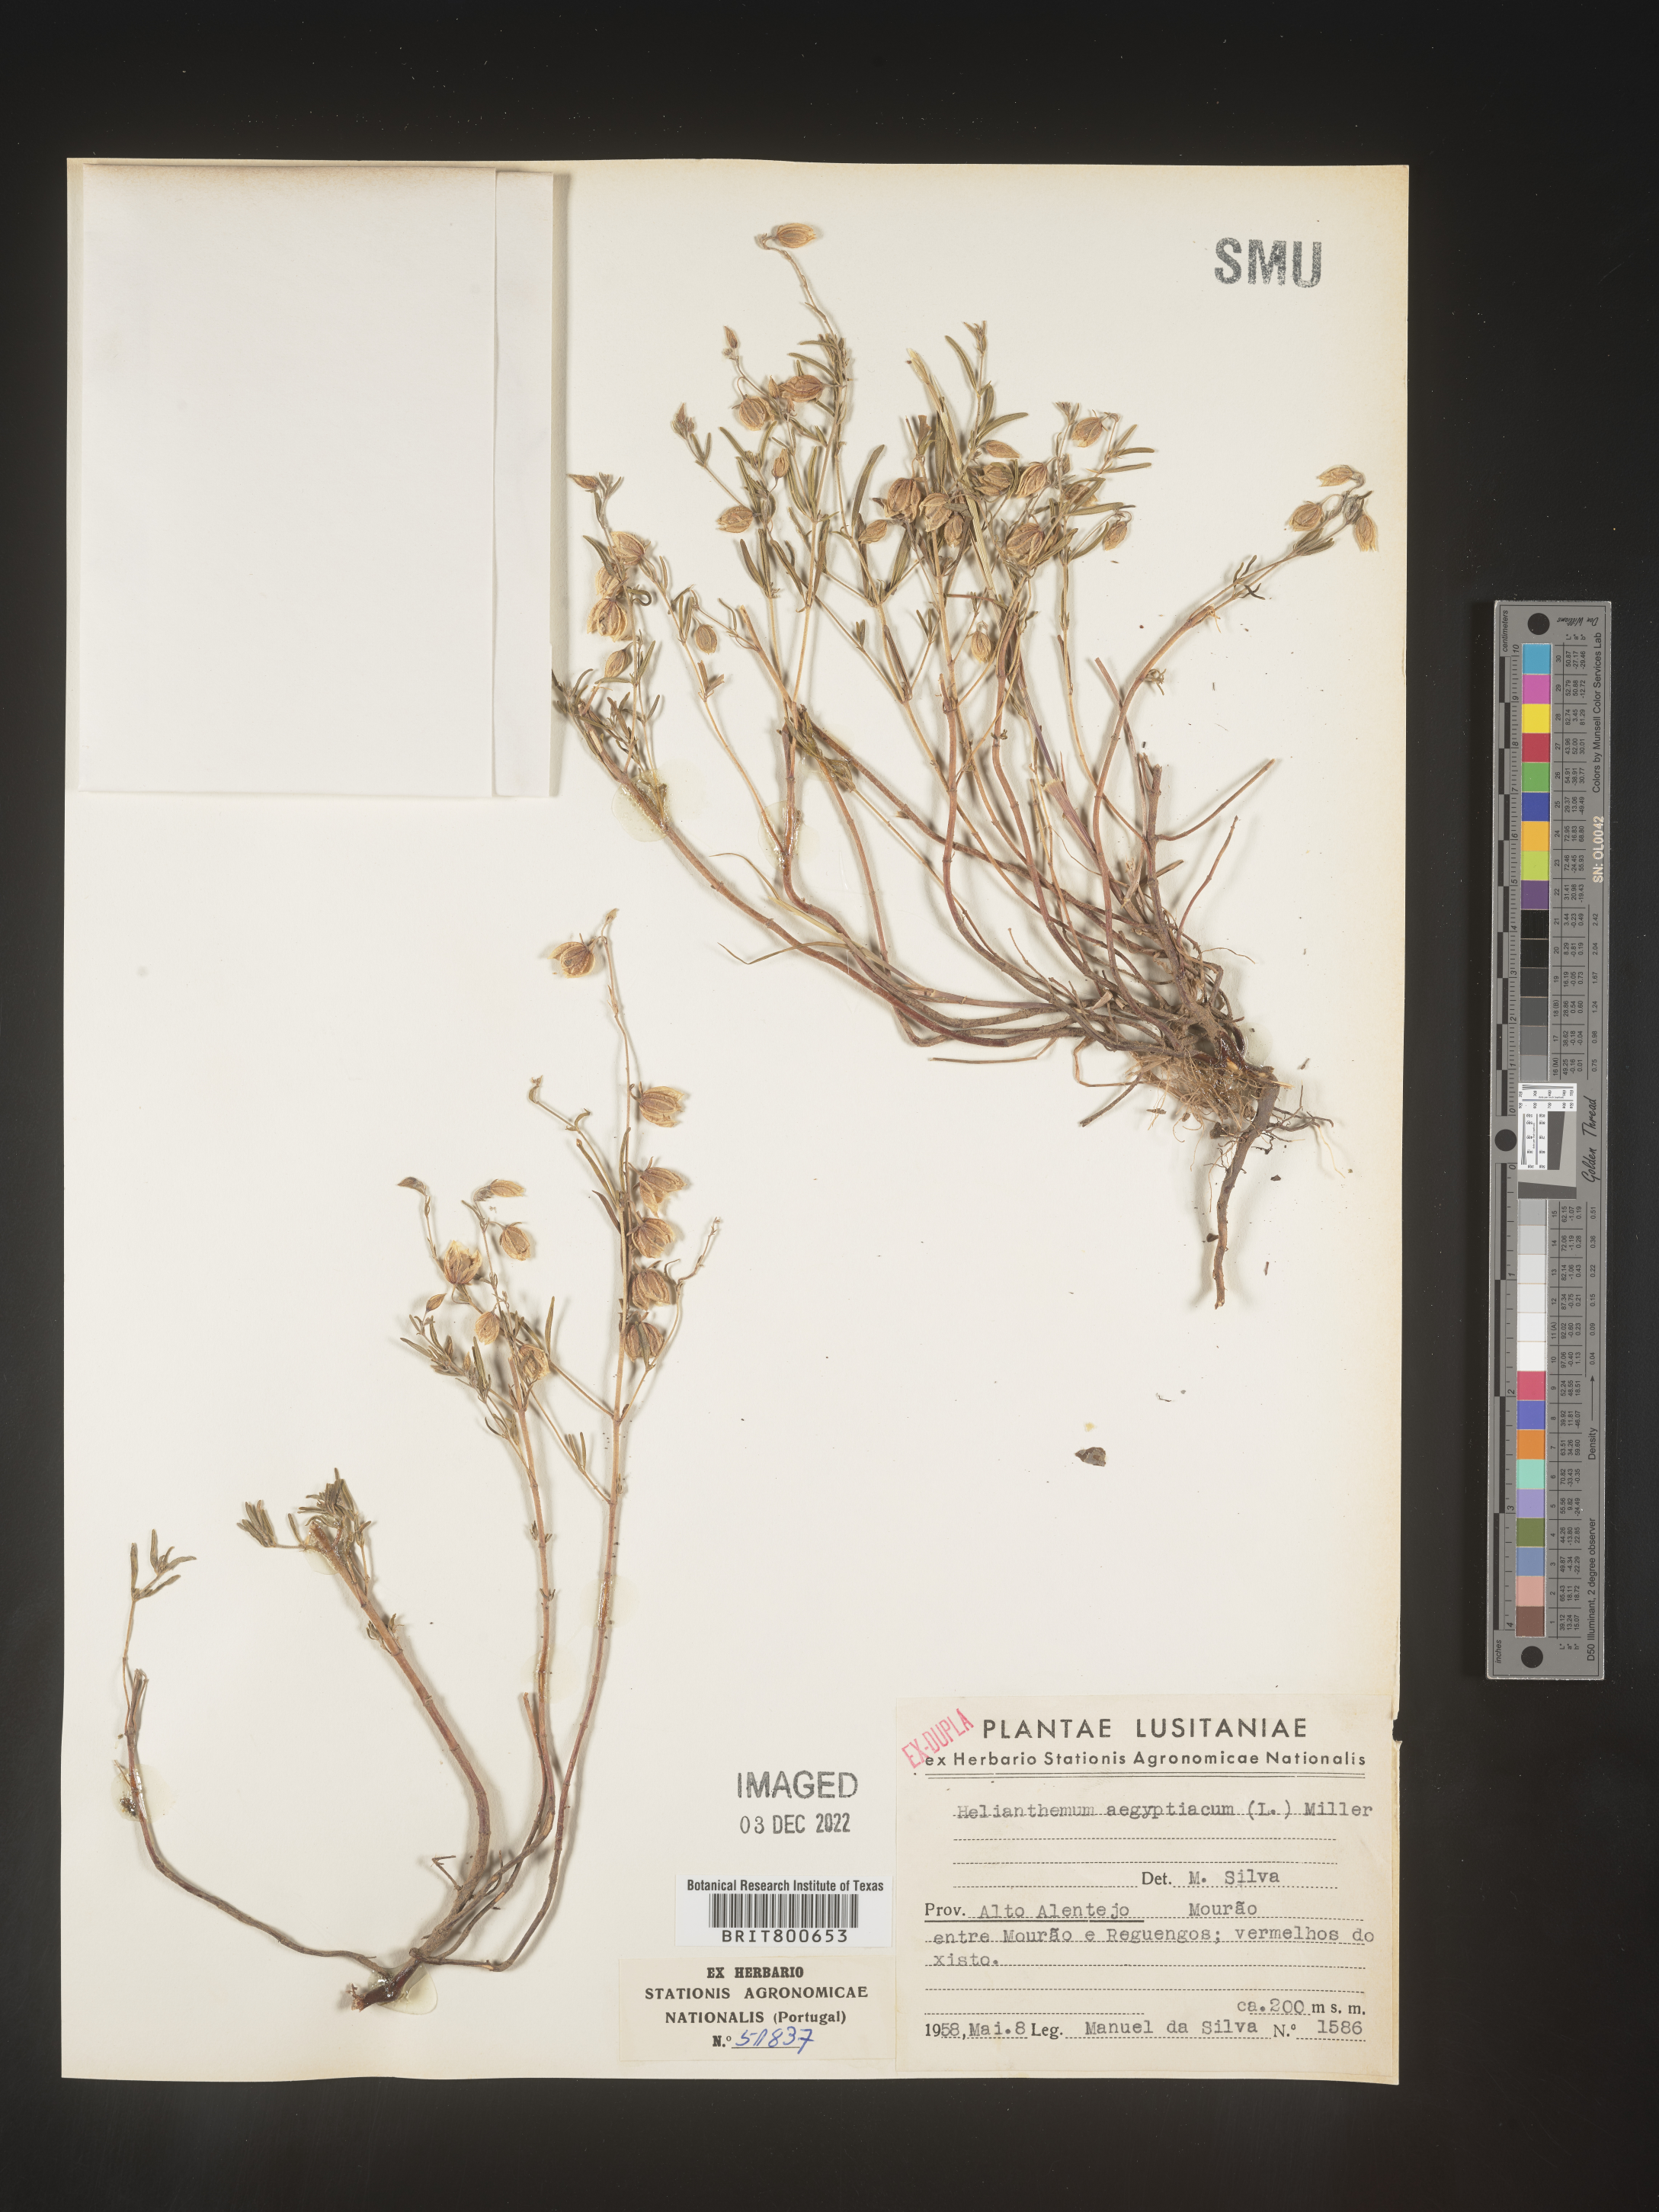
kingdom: Plantae
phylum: Tracheophyta
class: Magnoliopsida
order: Malvales
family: Cistaceae
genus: Helianthemum
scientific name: Helianthemum
